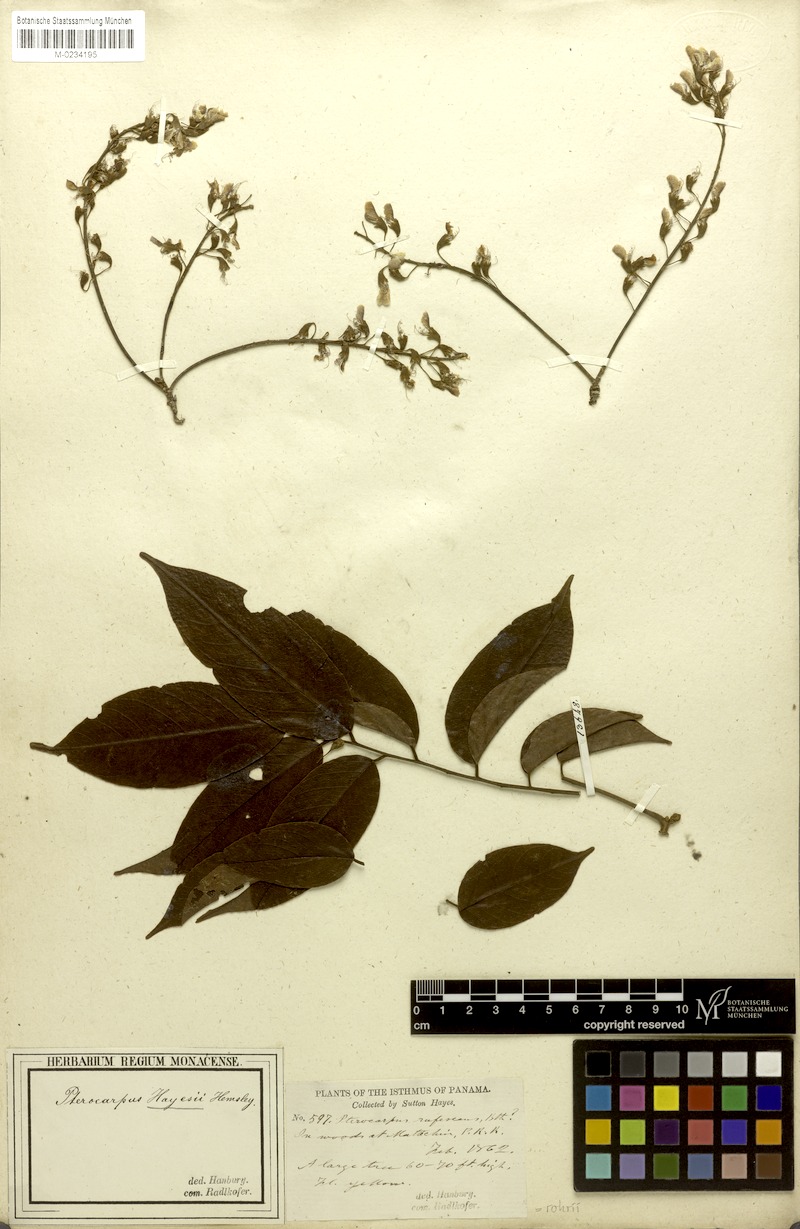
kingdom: Plantae
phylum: Tracheophyta
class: Magnoliopsida
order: Fabales
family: Fabaceae
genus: Pterocarpus
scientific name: Pterocarpus rohrii
